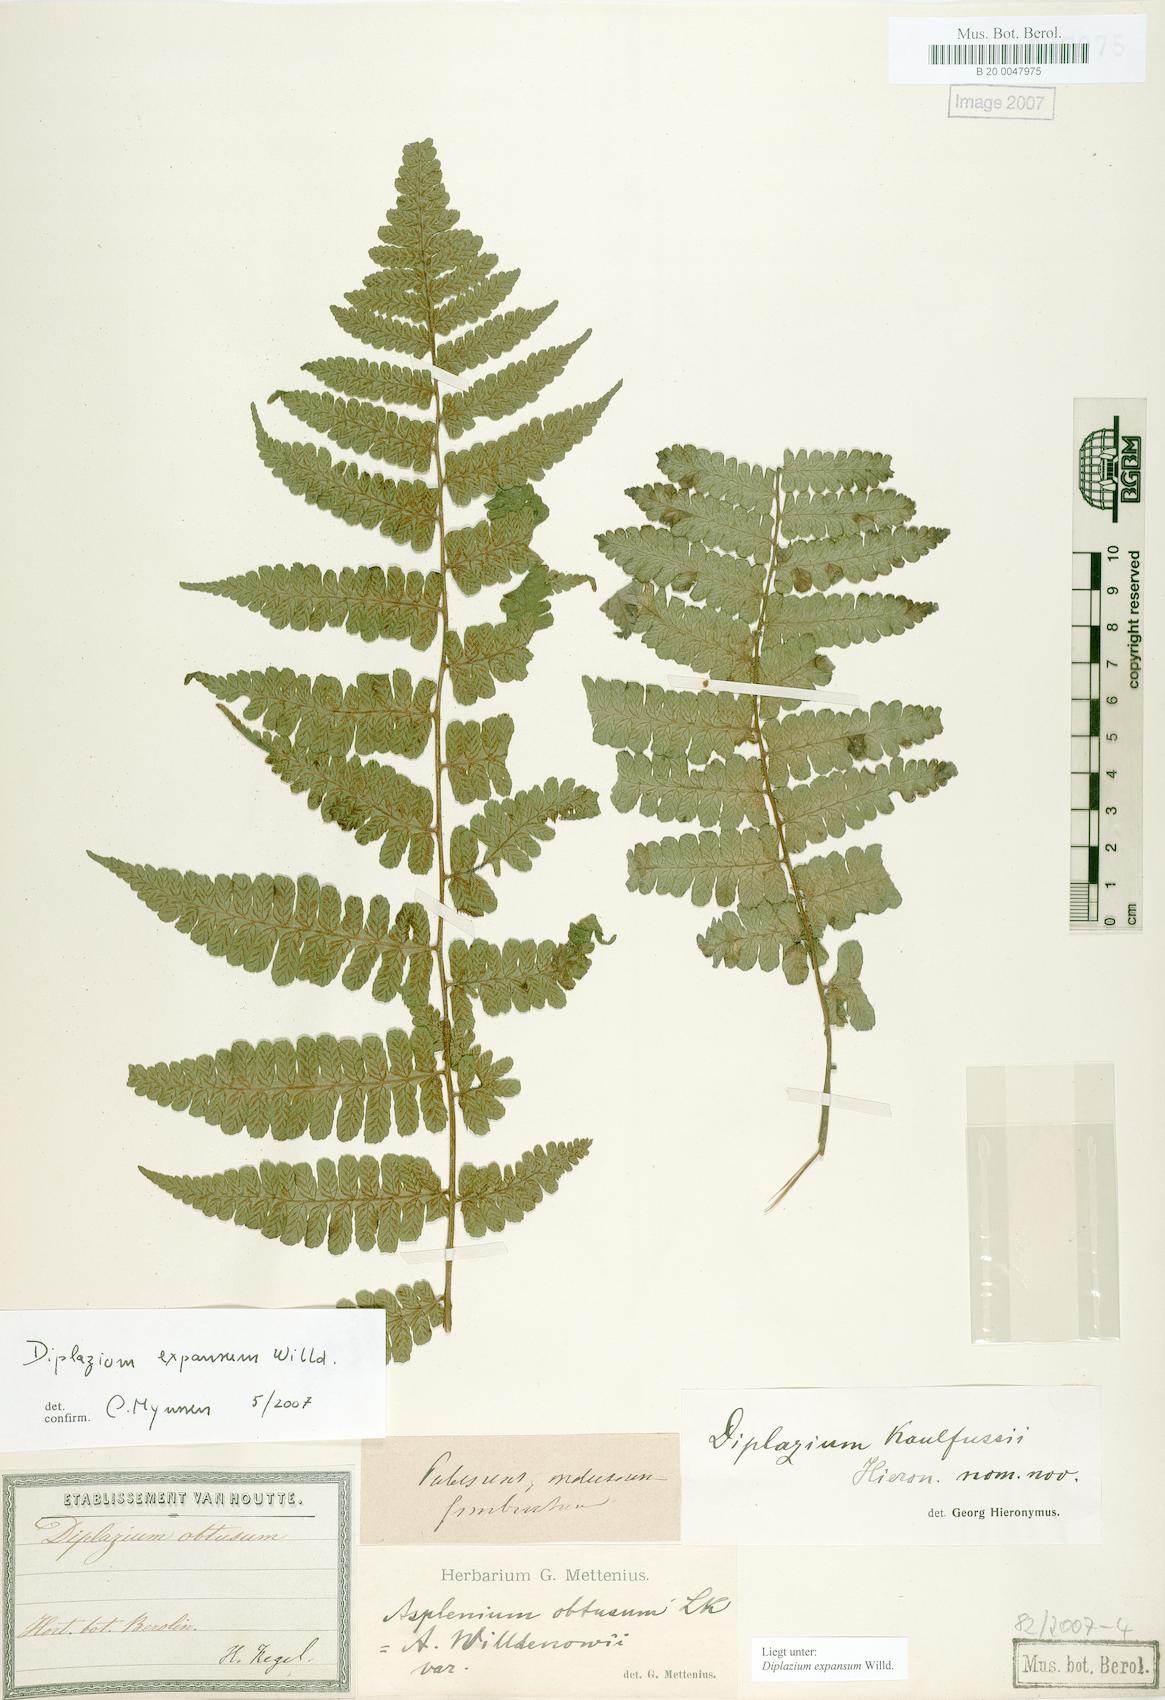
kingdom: Plantae
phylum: Tracheophyta
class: Polypodiopsida
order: Polypodiales
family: Athyriaceae
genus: Diplazium
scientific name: Diplazium expansum
